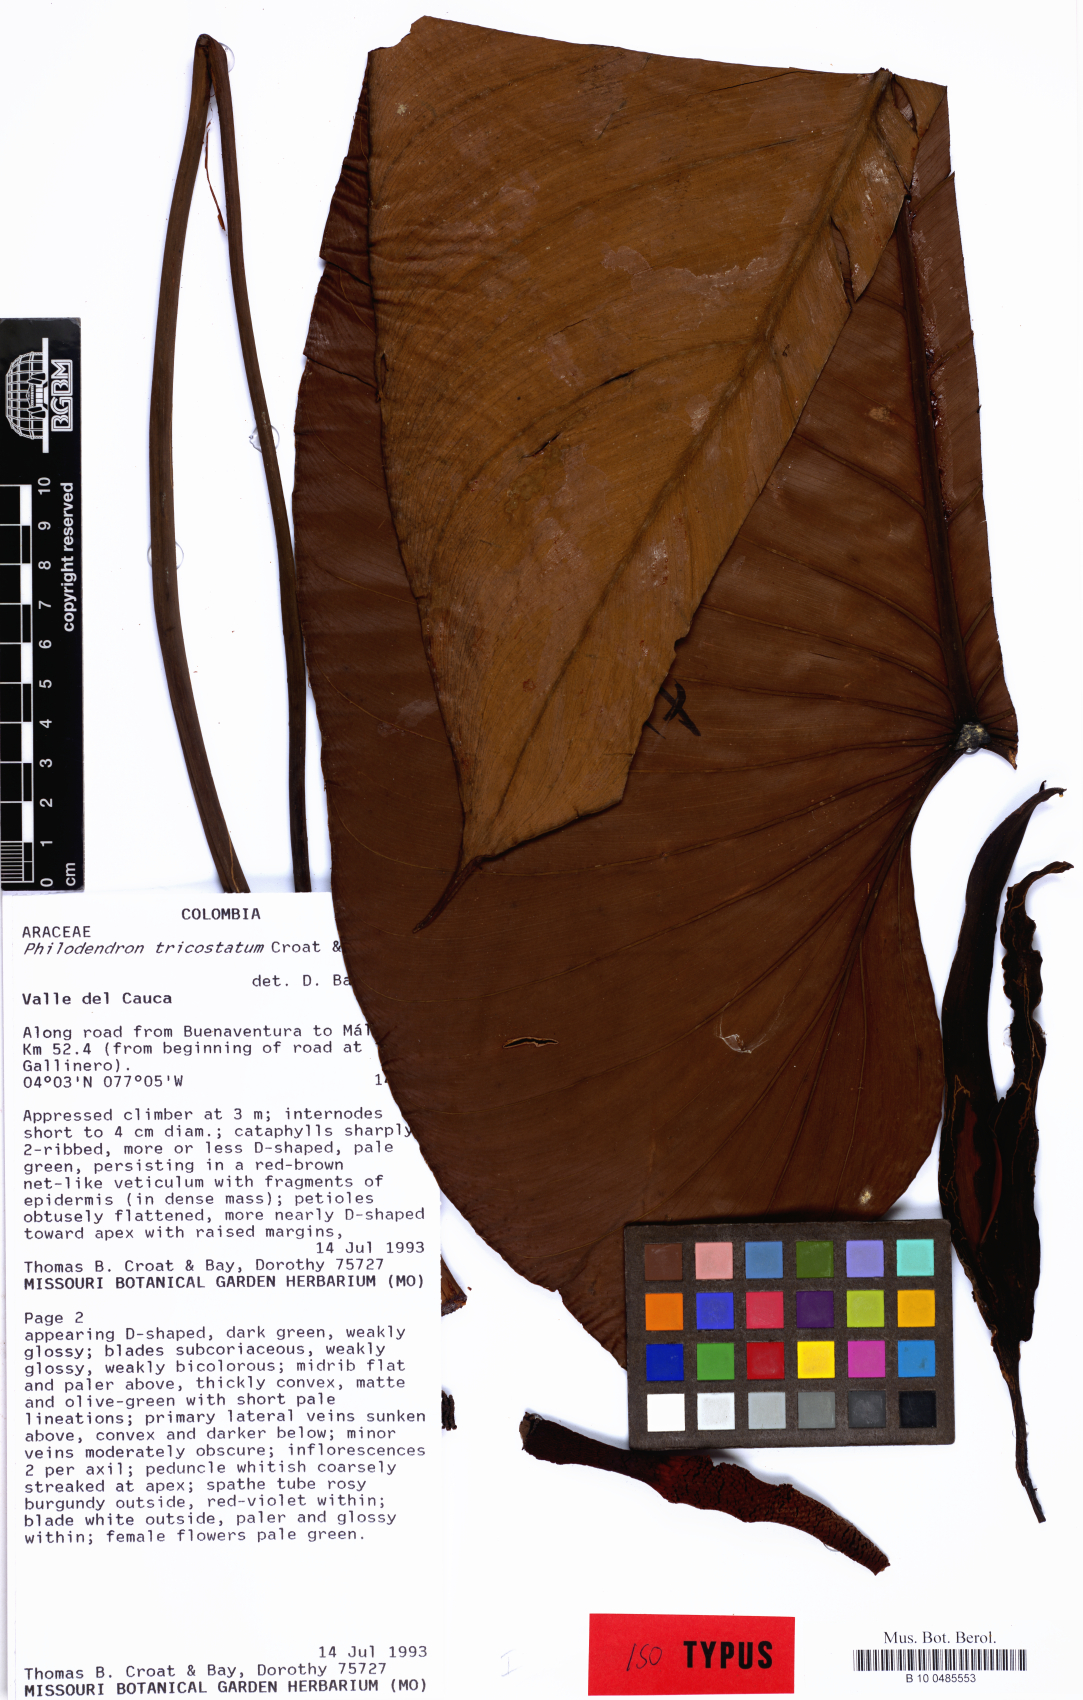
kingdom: Plantae
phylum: Tracheophyta
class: Liliopsida
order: Alismatales
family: Araceae
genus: Philodendron
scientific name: Philodendron tricostatum
